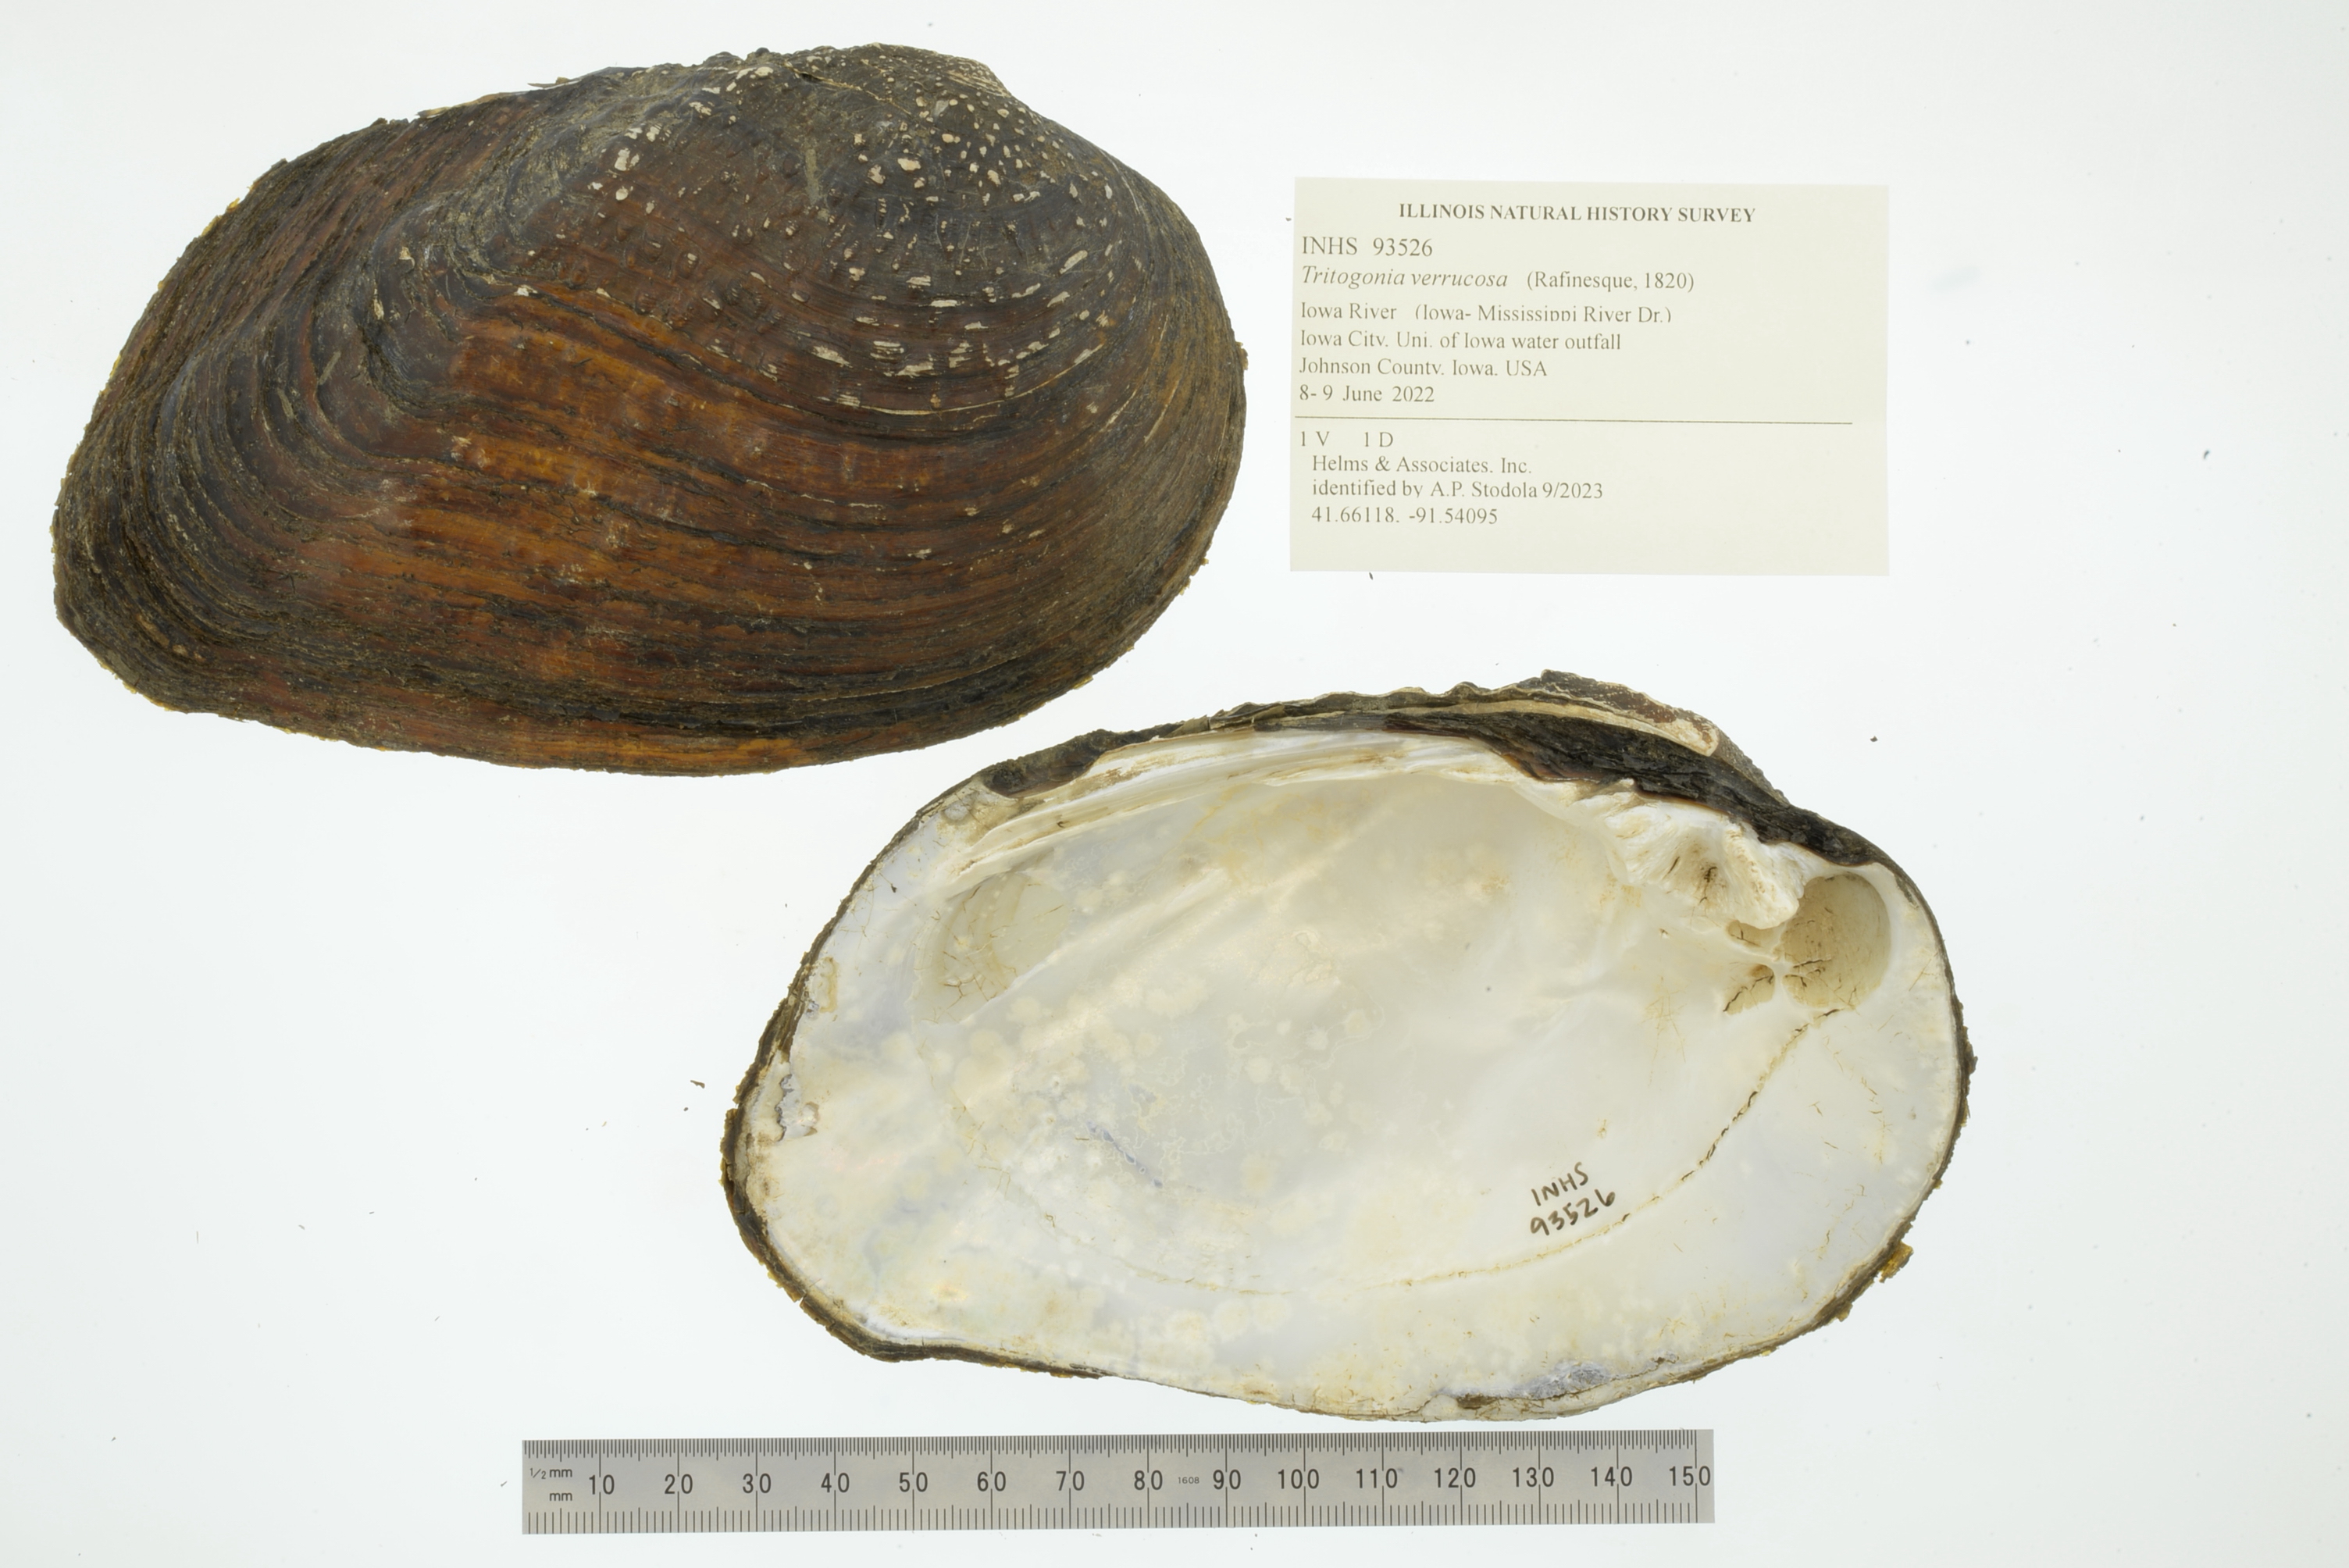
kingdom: Animalia
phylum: Mollusca
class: Bivalvia
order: Unionida
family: Unionidae
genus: Tritogonia
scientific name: Tritogonia verrucosa
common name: Pistolgrip
